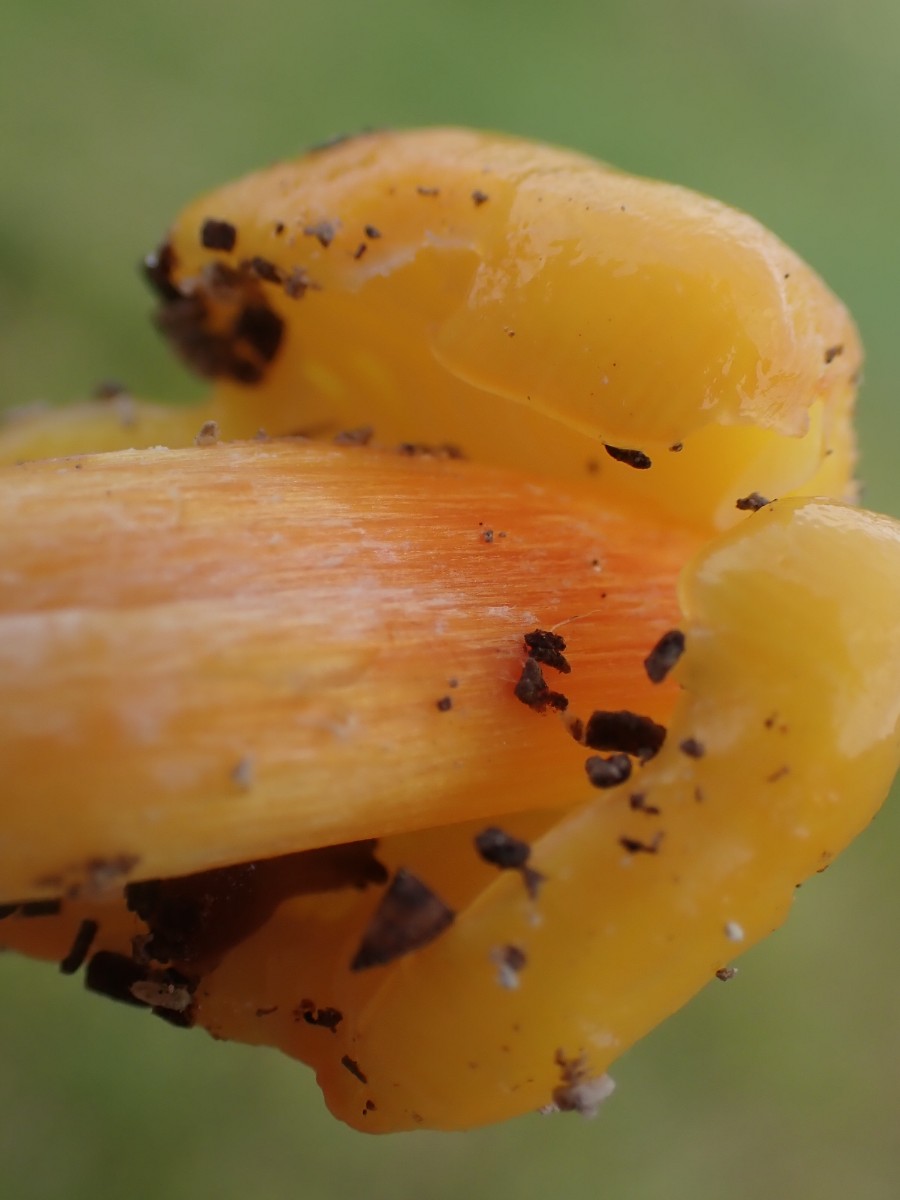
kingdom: Fungi
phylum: Basidiomycota
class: Agaricomycetes
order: Agaricales
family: Hygrophoraceae
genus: Hygrocybe
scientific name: Hygrocybe acutoconica
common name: Konrads vokshat
